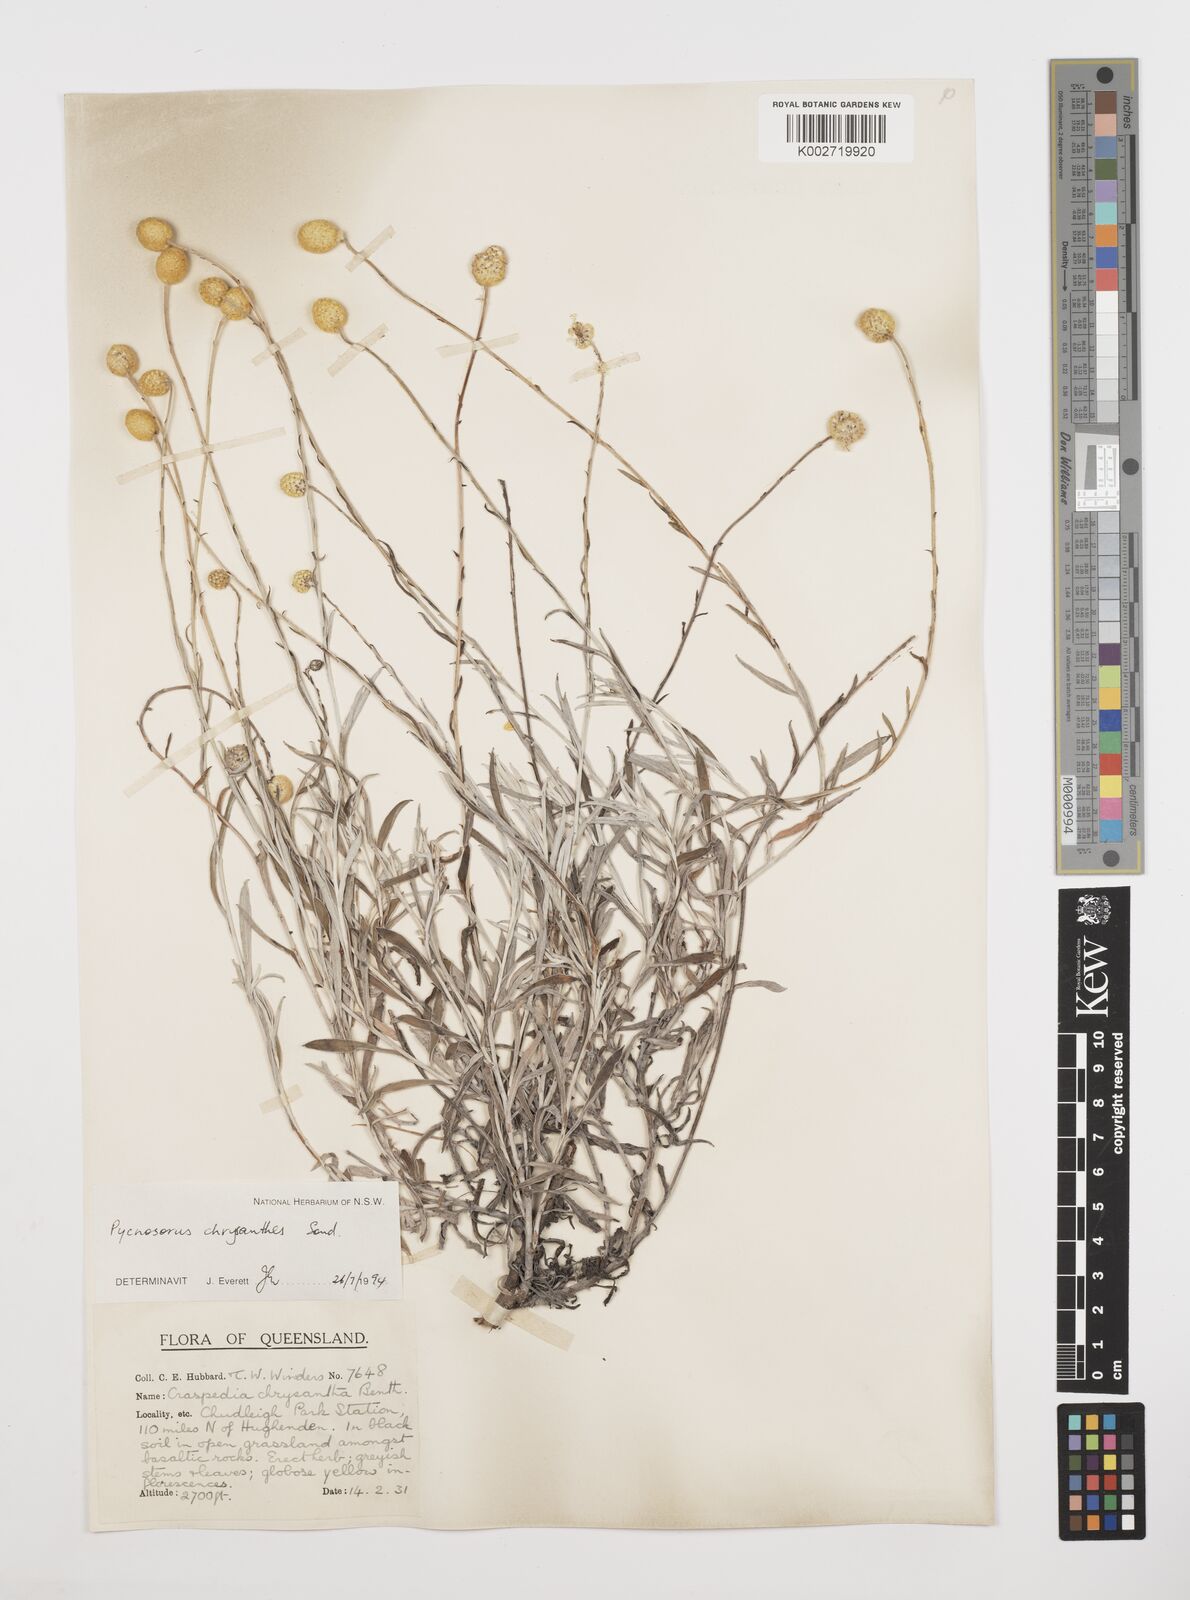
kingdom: Plantae
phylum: Tracheophyta
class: Magnoliopsida
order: Asterales
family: Asteraceae
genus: Pycnosorus
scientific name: Pycnosorus chrysanthus
